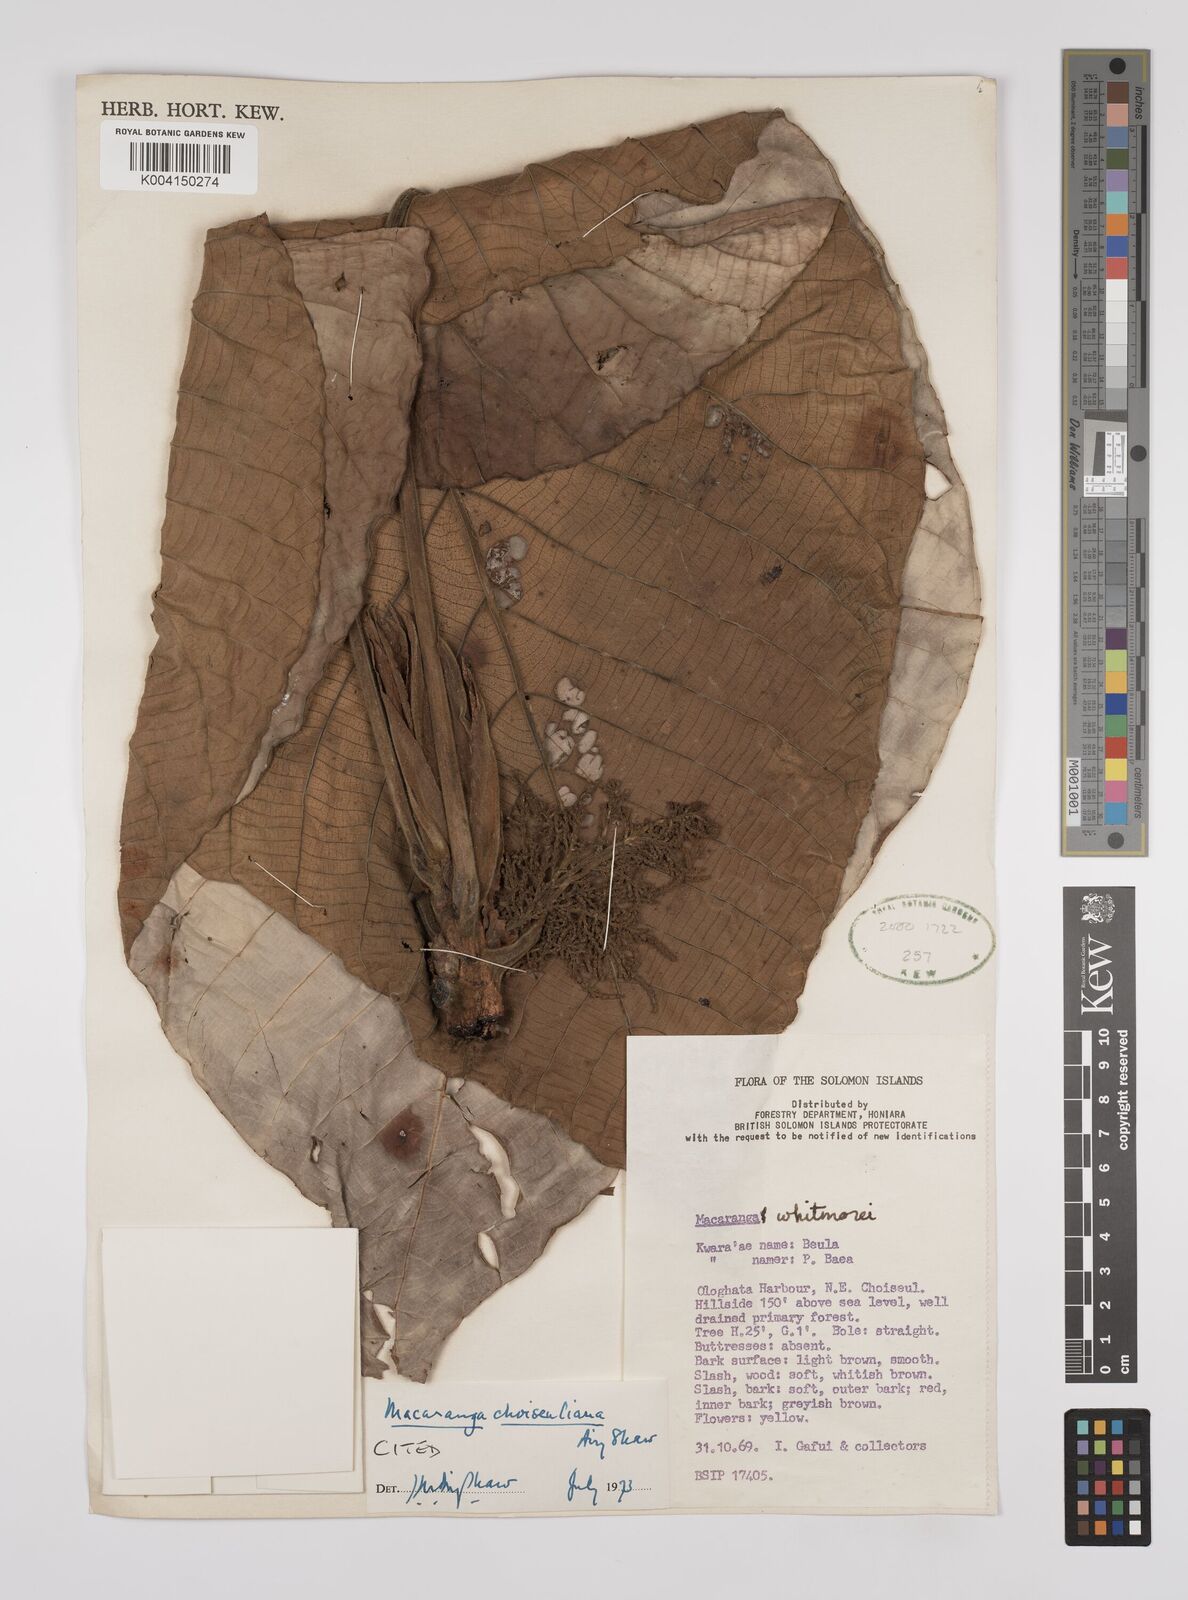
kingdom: Plantae
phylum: Tracheophyta
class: Magnoliopsida
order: Malpighiales
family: Euphorbiaceae
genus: Macaranga
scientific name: Macaranga choiseuliana
